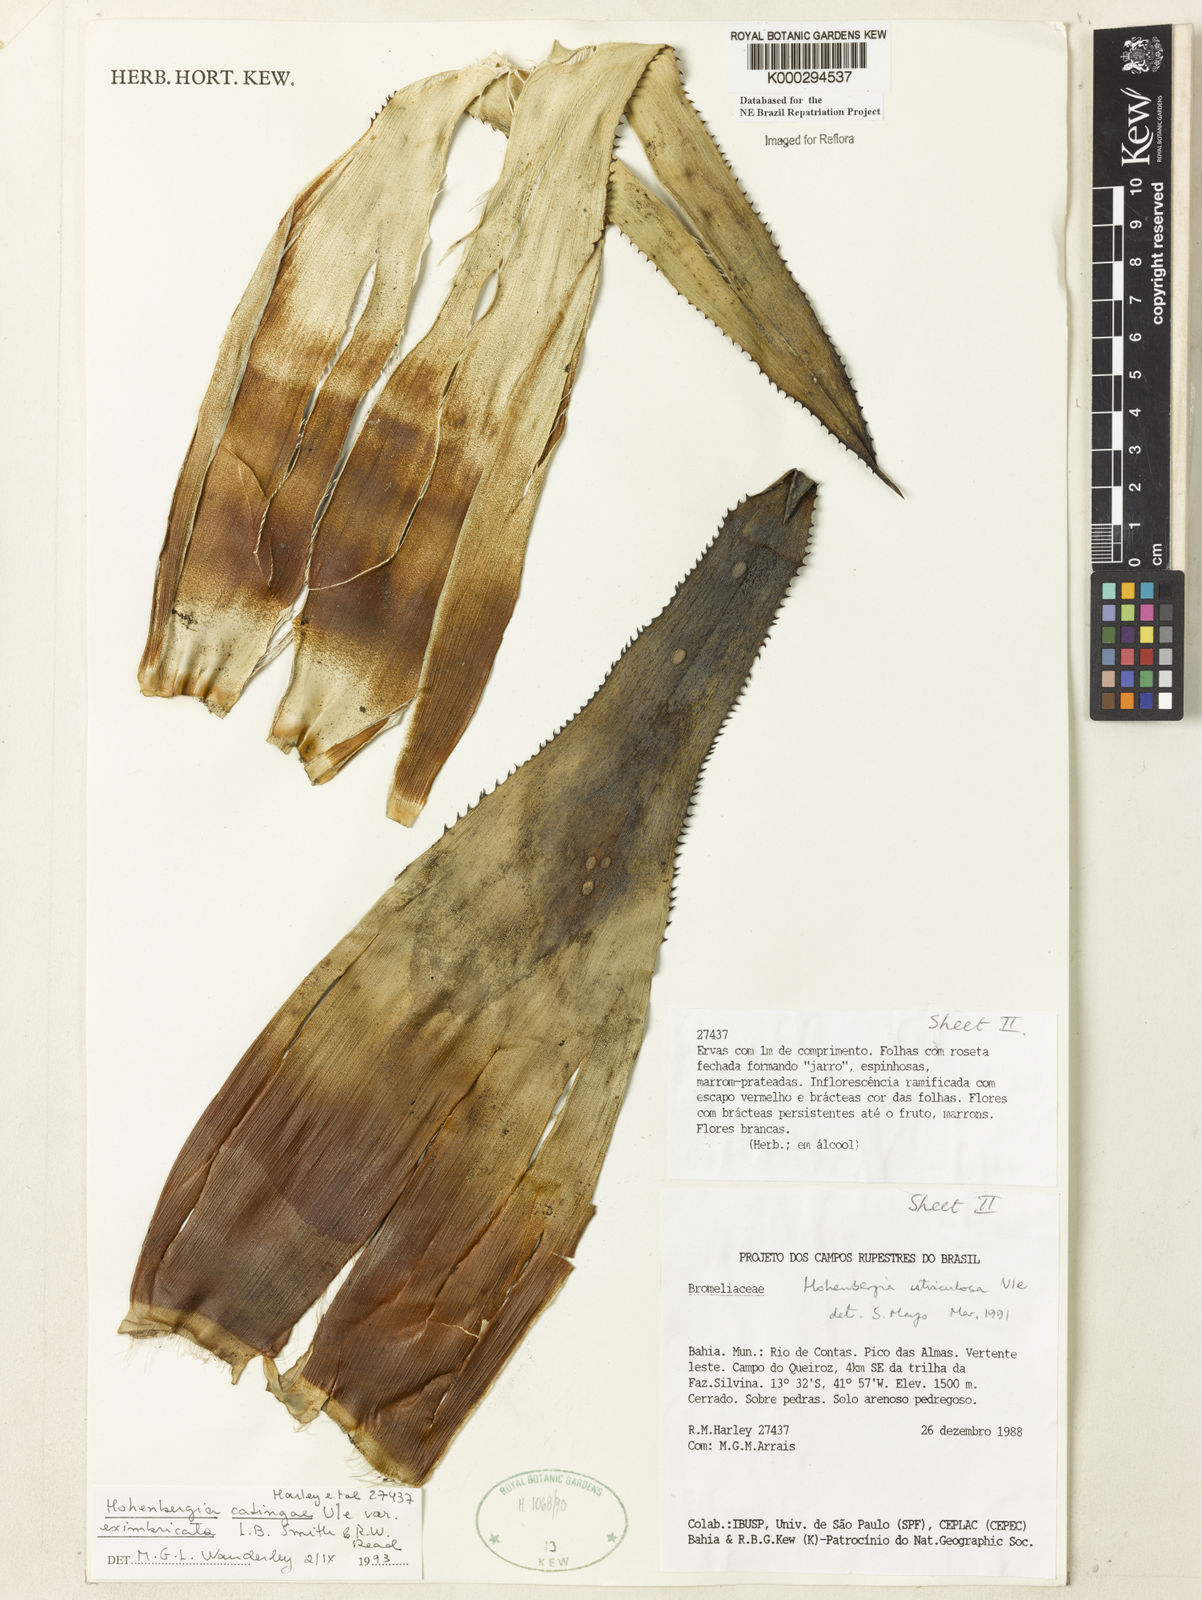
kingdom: Plantae
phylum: Tracheophyta
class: Liliopsida
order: Poales
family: Bromeliaceae
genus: Hohenbergia
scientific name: Hohenbergia catingae
